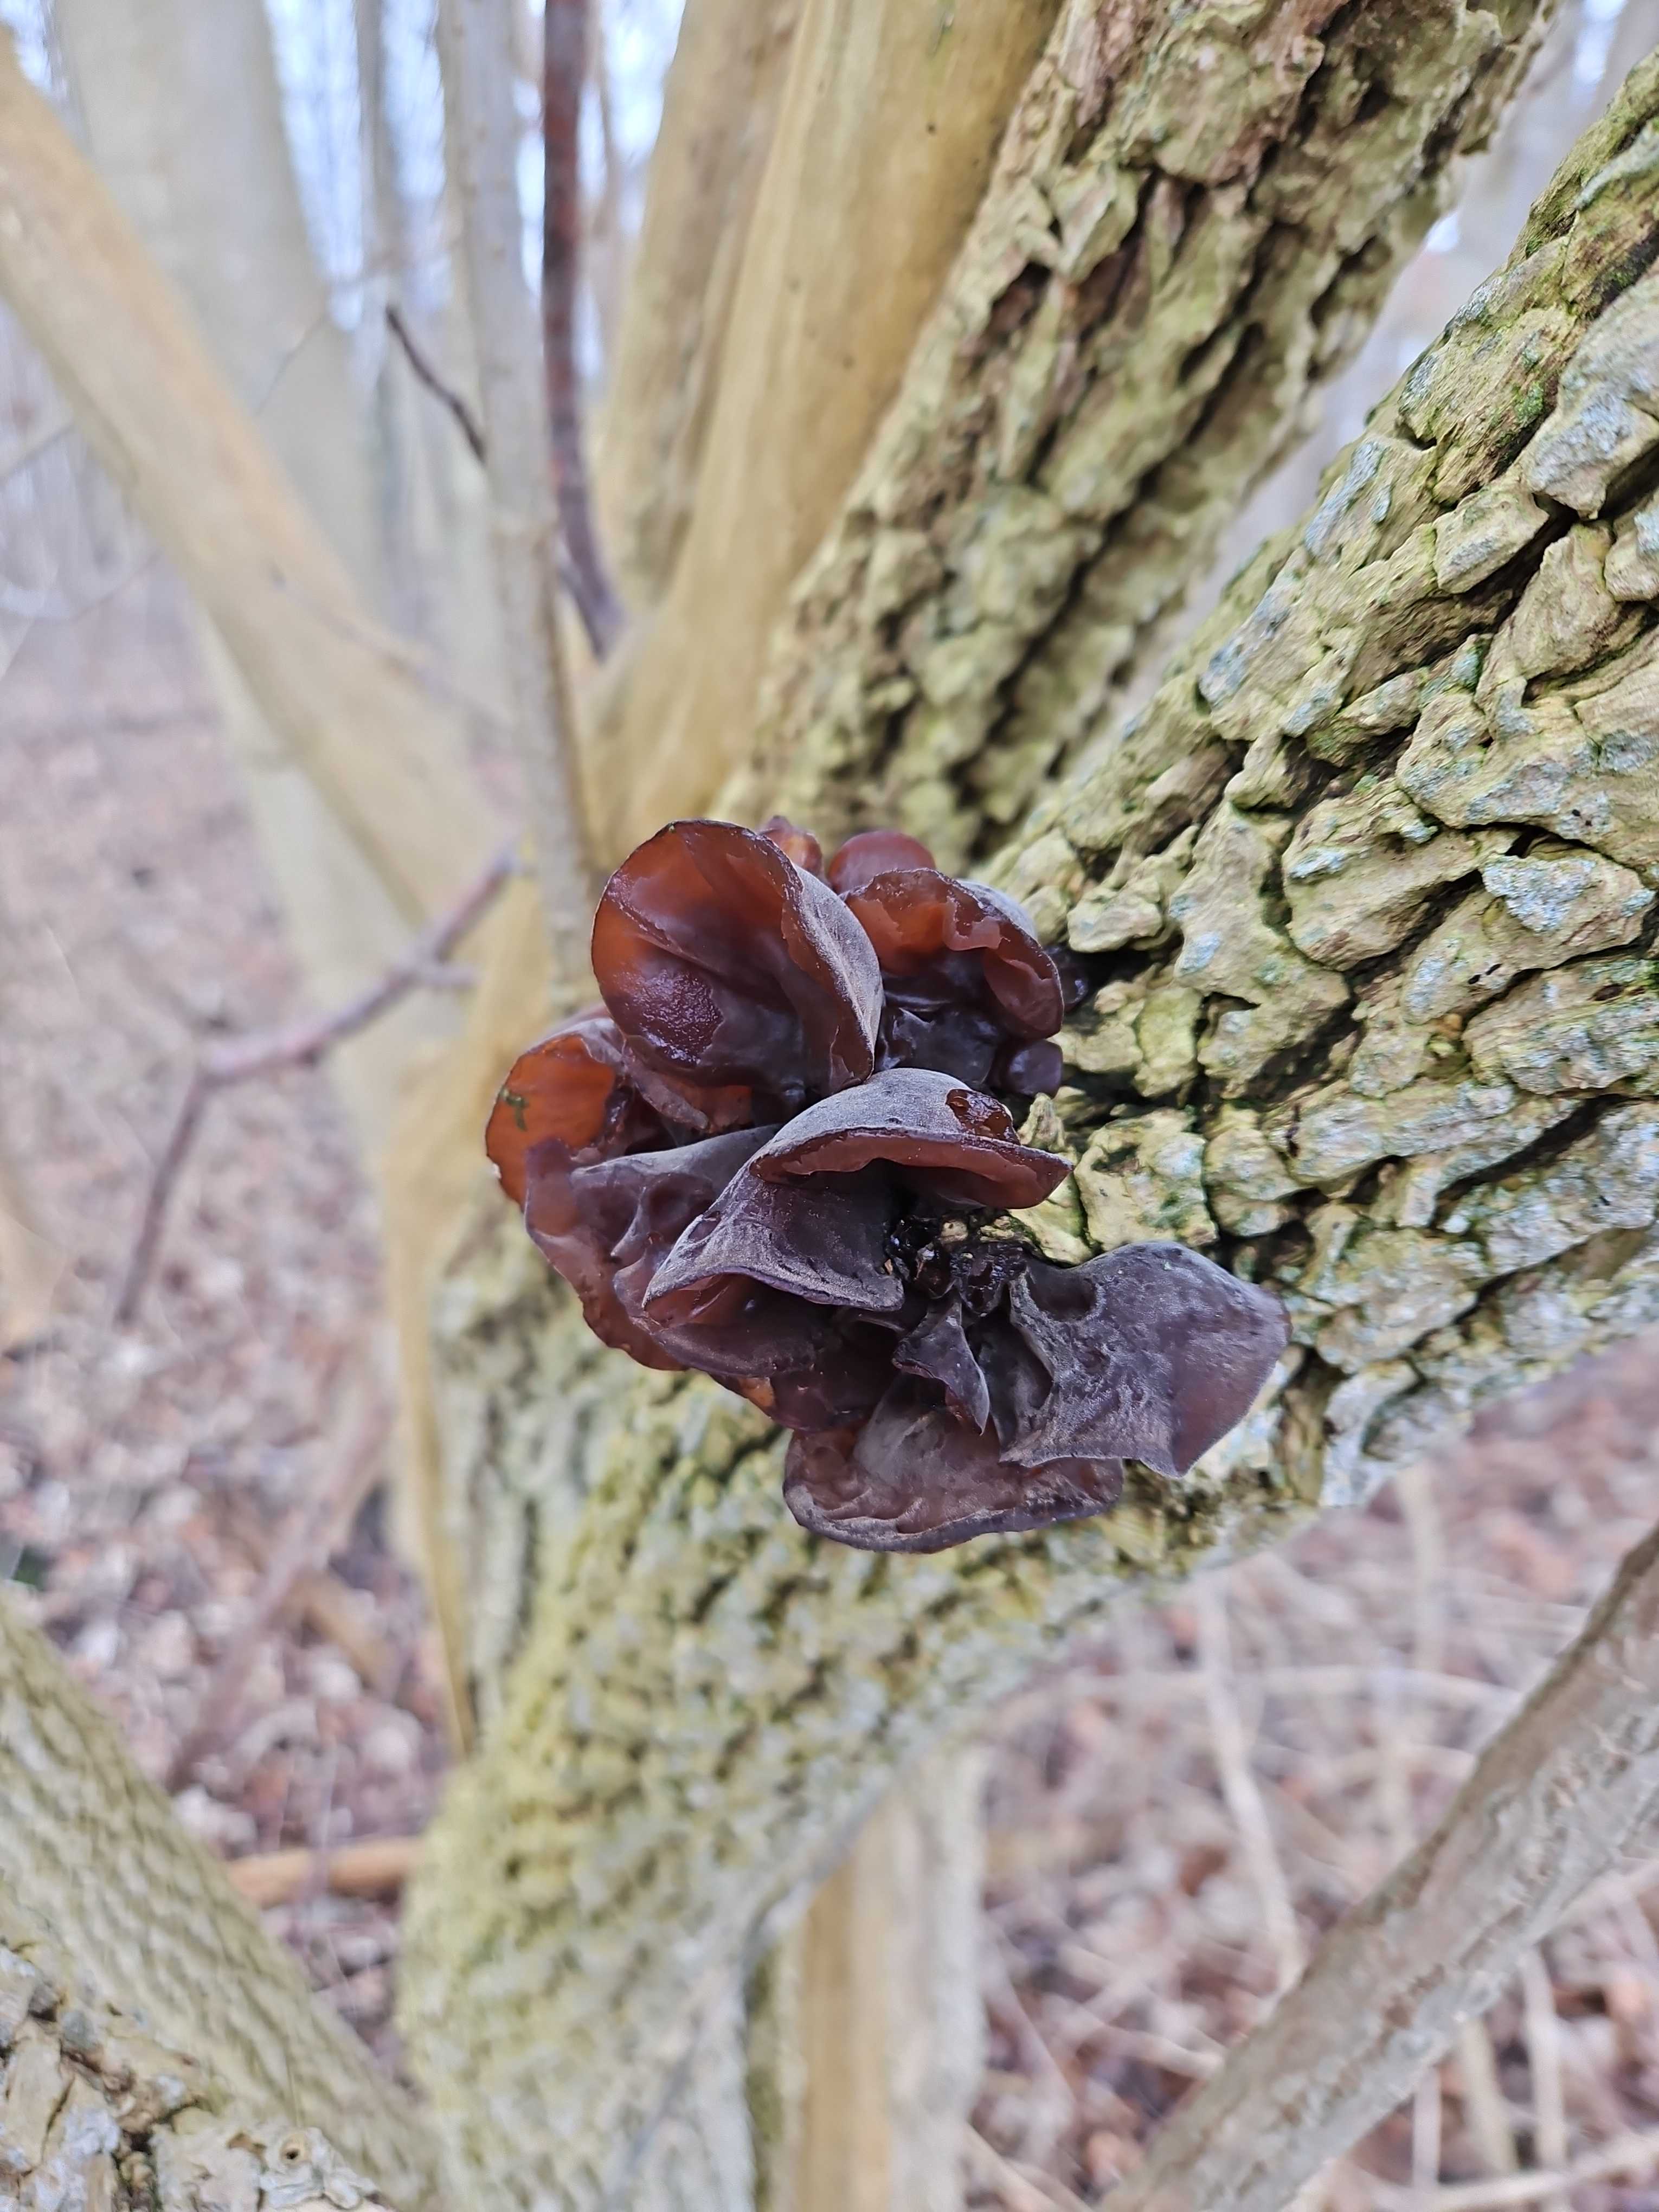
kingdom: Fungi
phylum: Basidiomycota
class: Agaricomycetes
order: Auriculariales
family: Auriculariaceae
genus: Auricularia
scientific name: Auricularia auricula-judae
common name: almindelig judasøre
